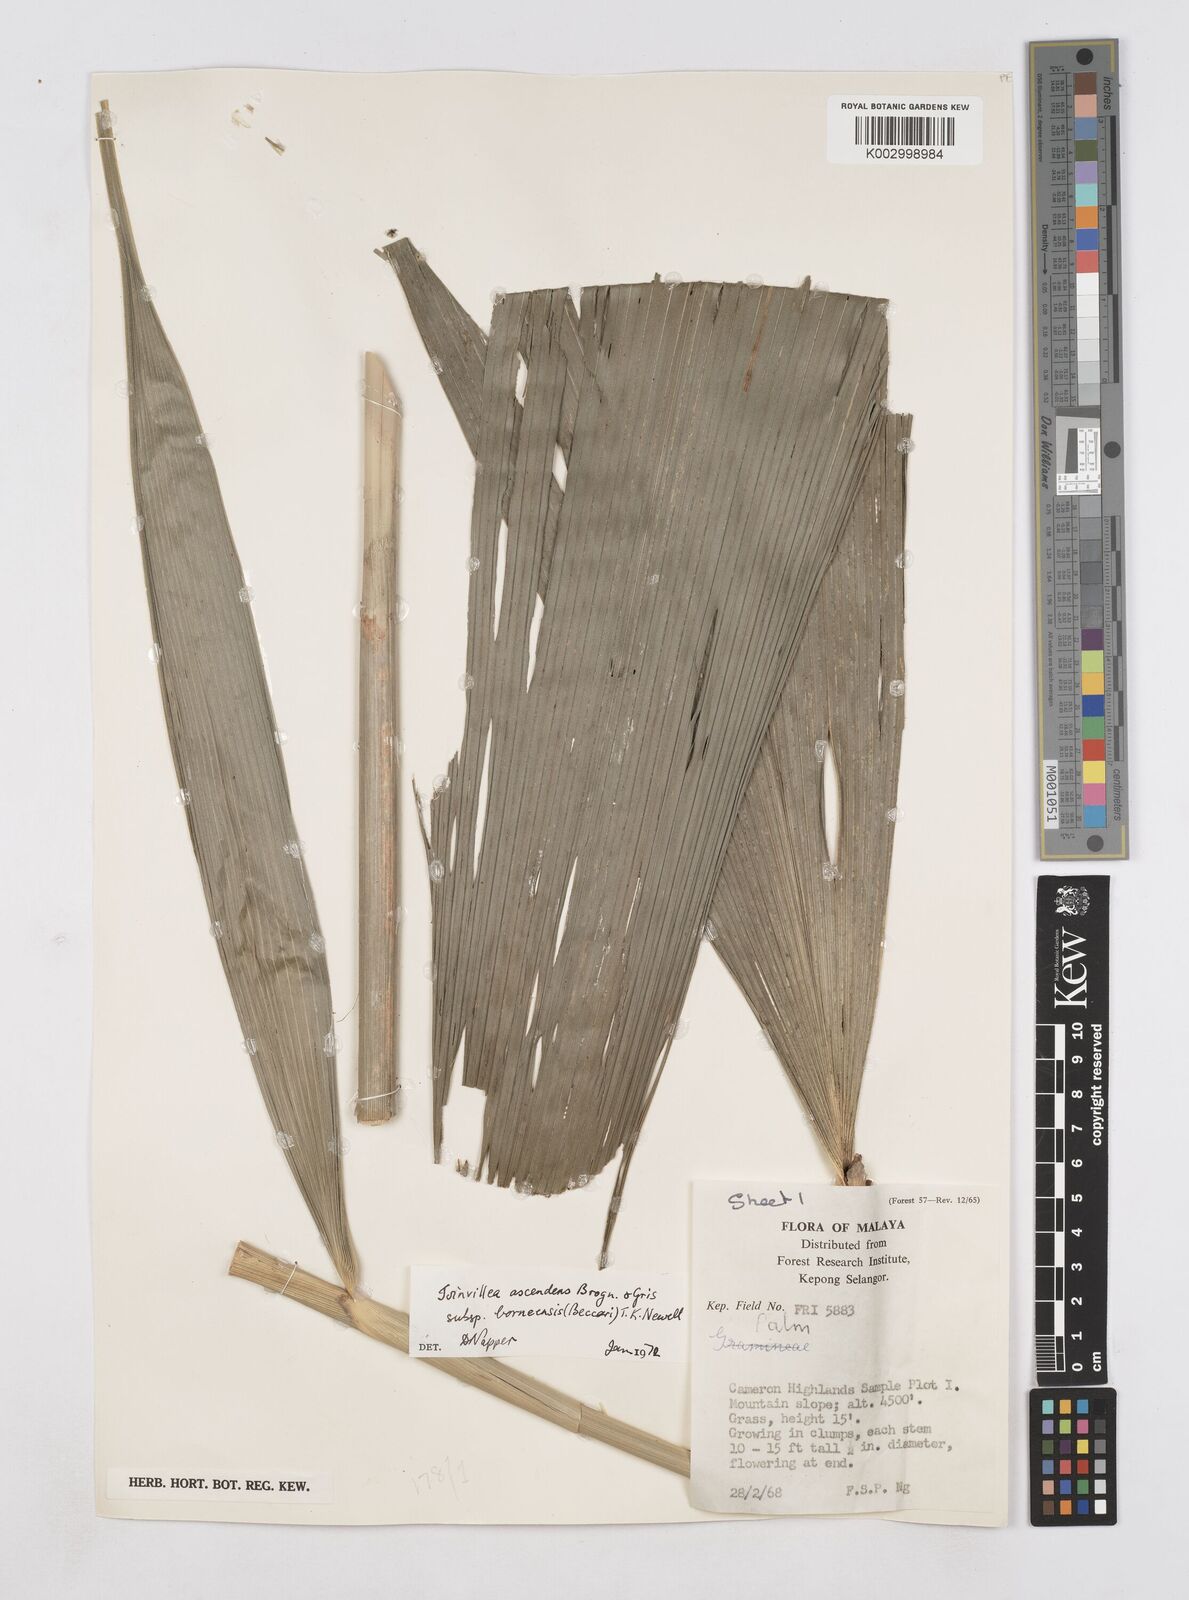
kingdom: Plantae
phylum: Tracheophyta
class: Liliopsida
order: Poales
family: Joinvilleaceae
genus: Joinvillea
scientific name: Joinvillea borneensis
